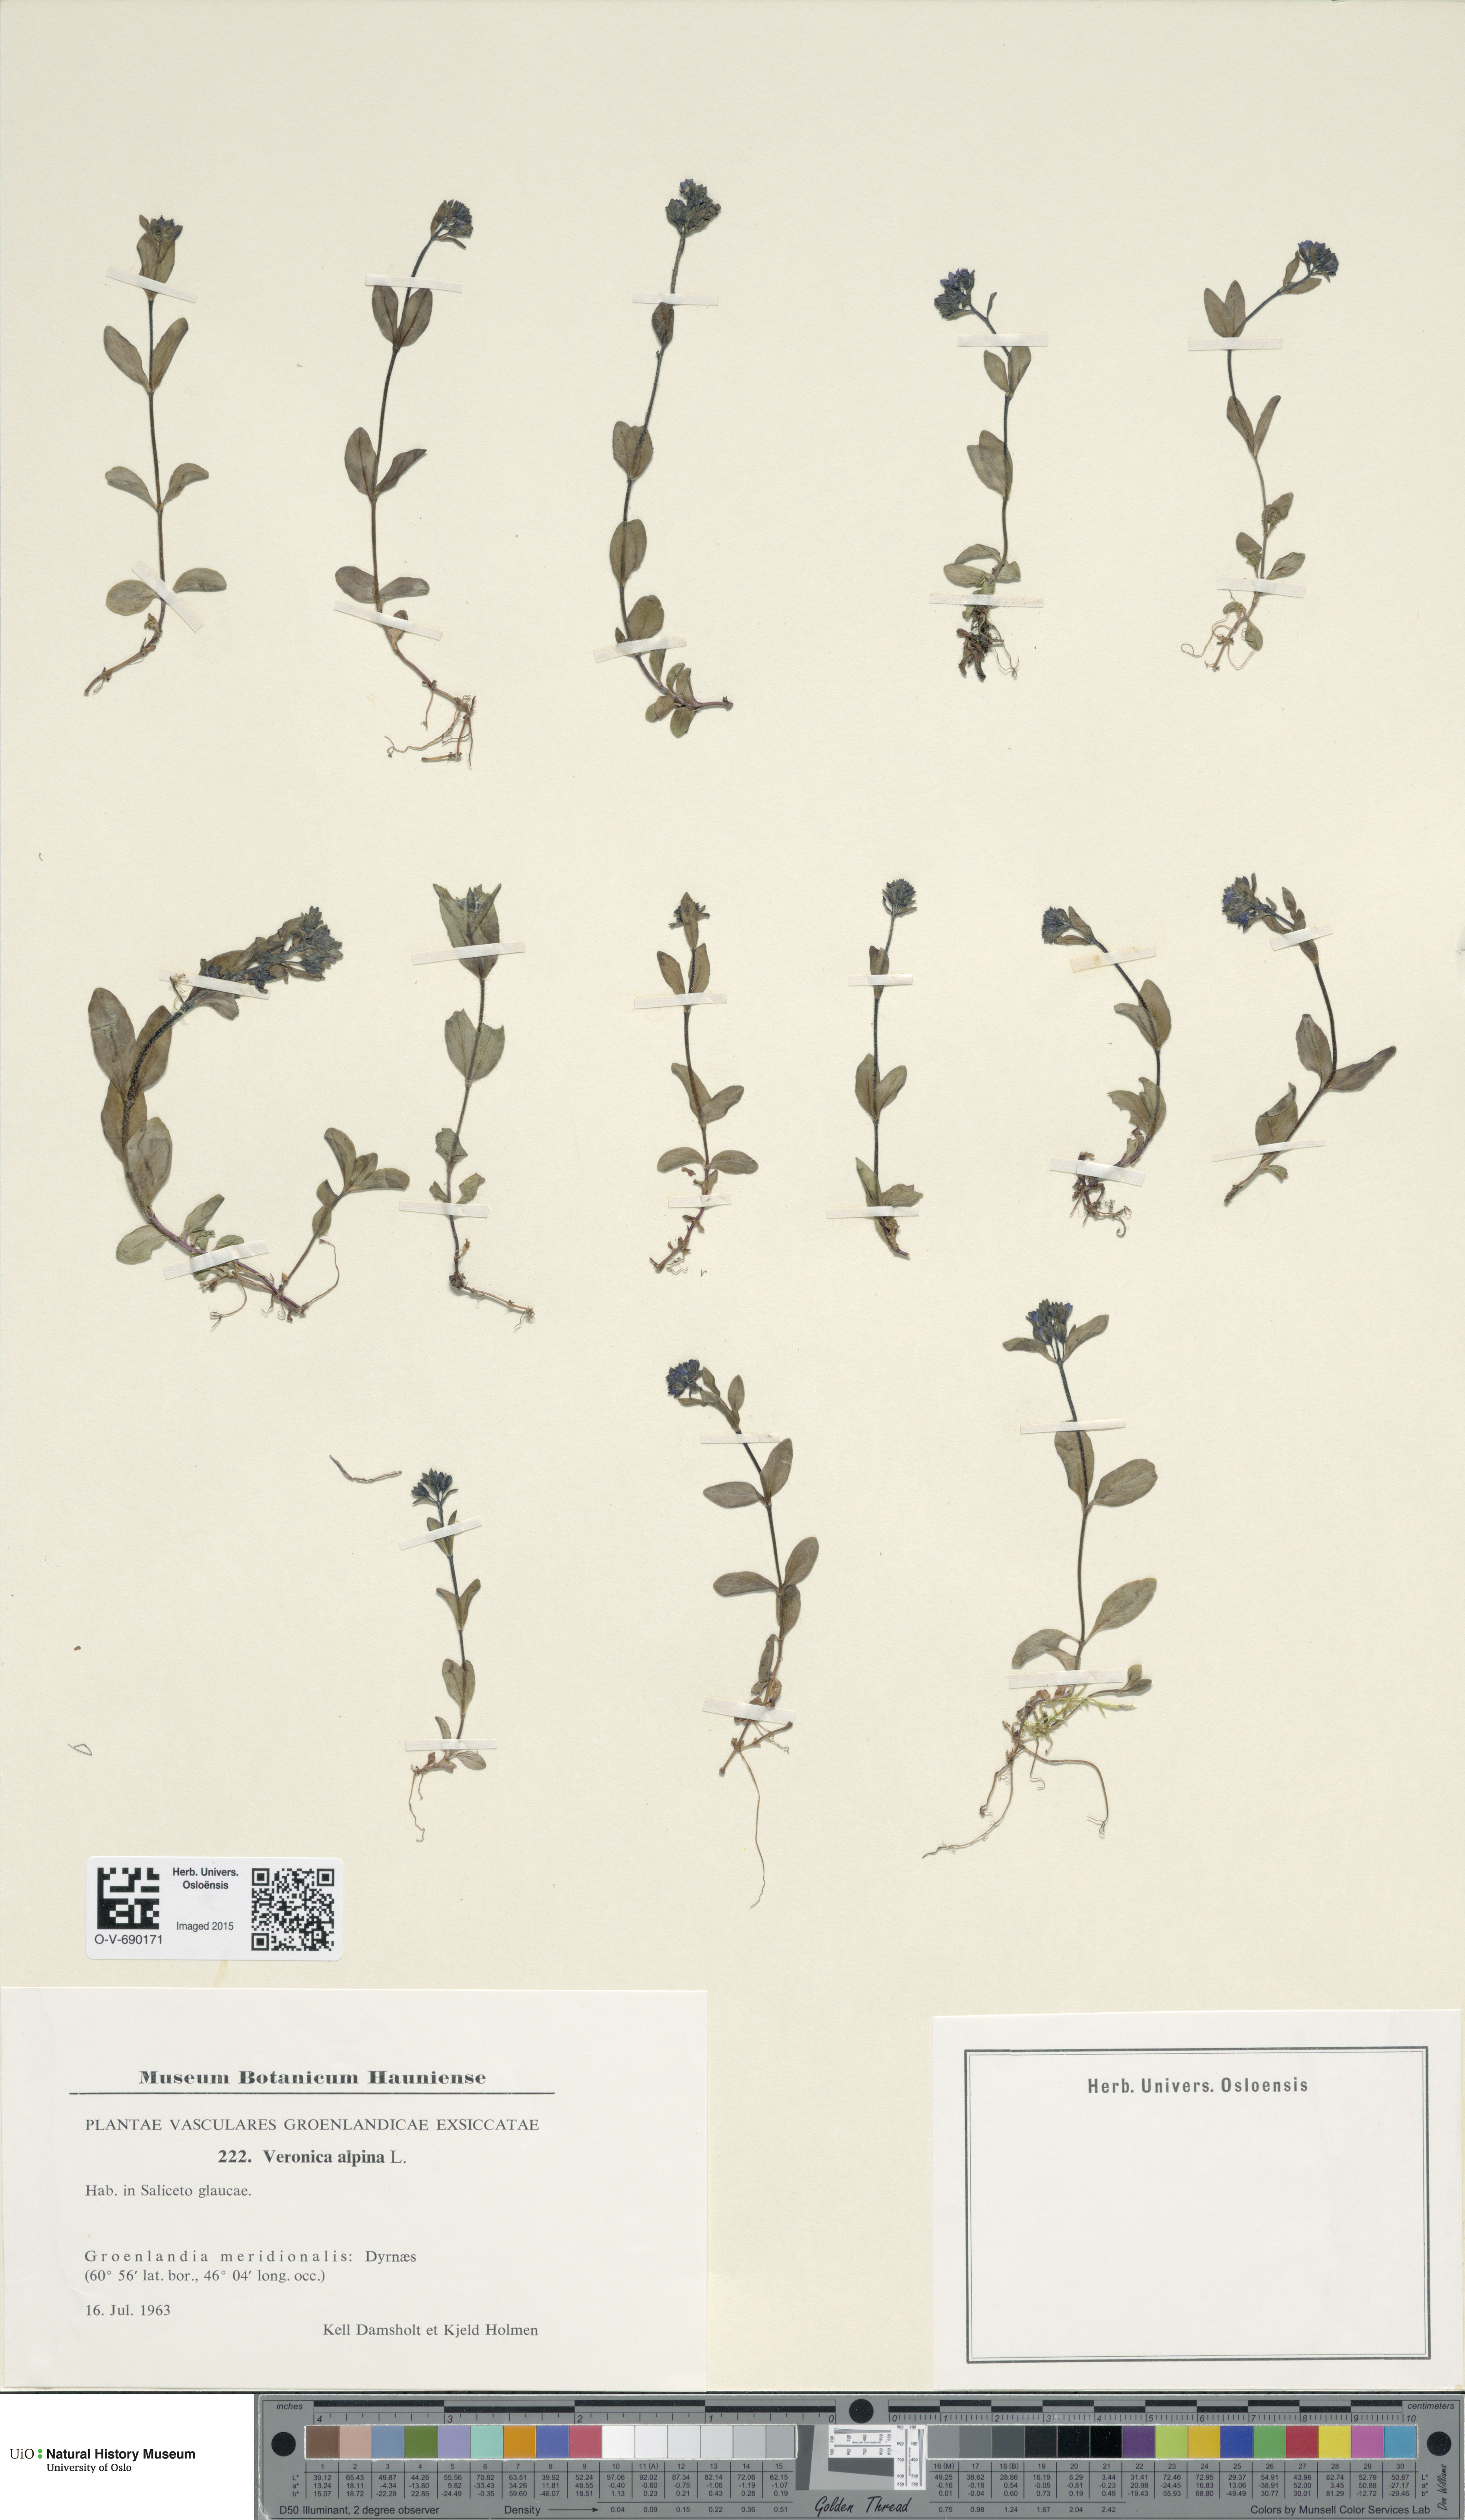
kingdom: Plantae
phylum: Tracheophyta
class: Magnoliopsida
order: Lamiales
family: Plantaginaceae
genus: Veronica
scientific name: Veronica alpina
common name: Alpine speedwell
